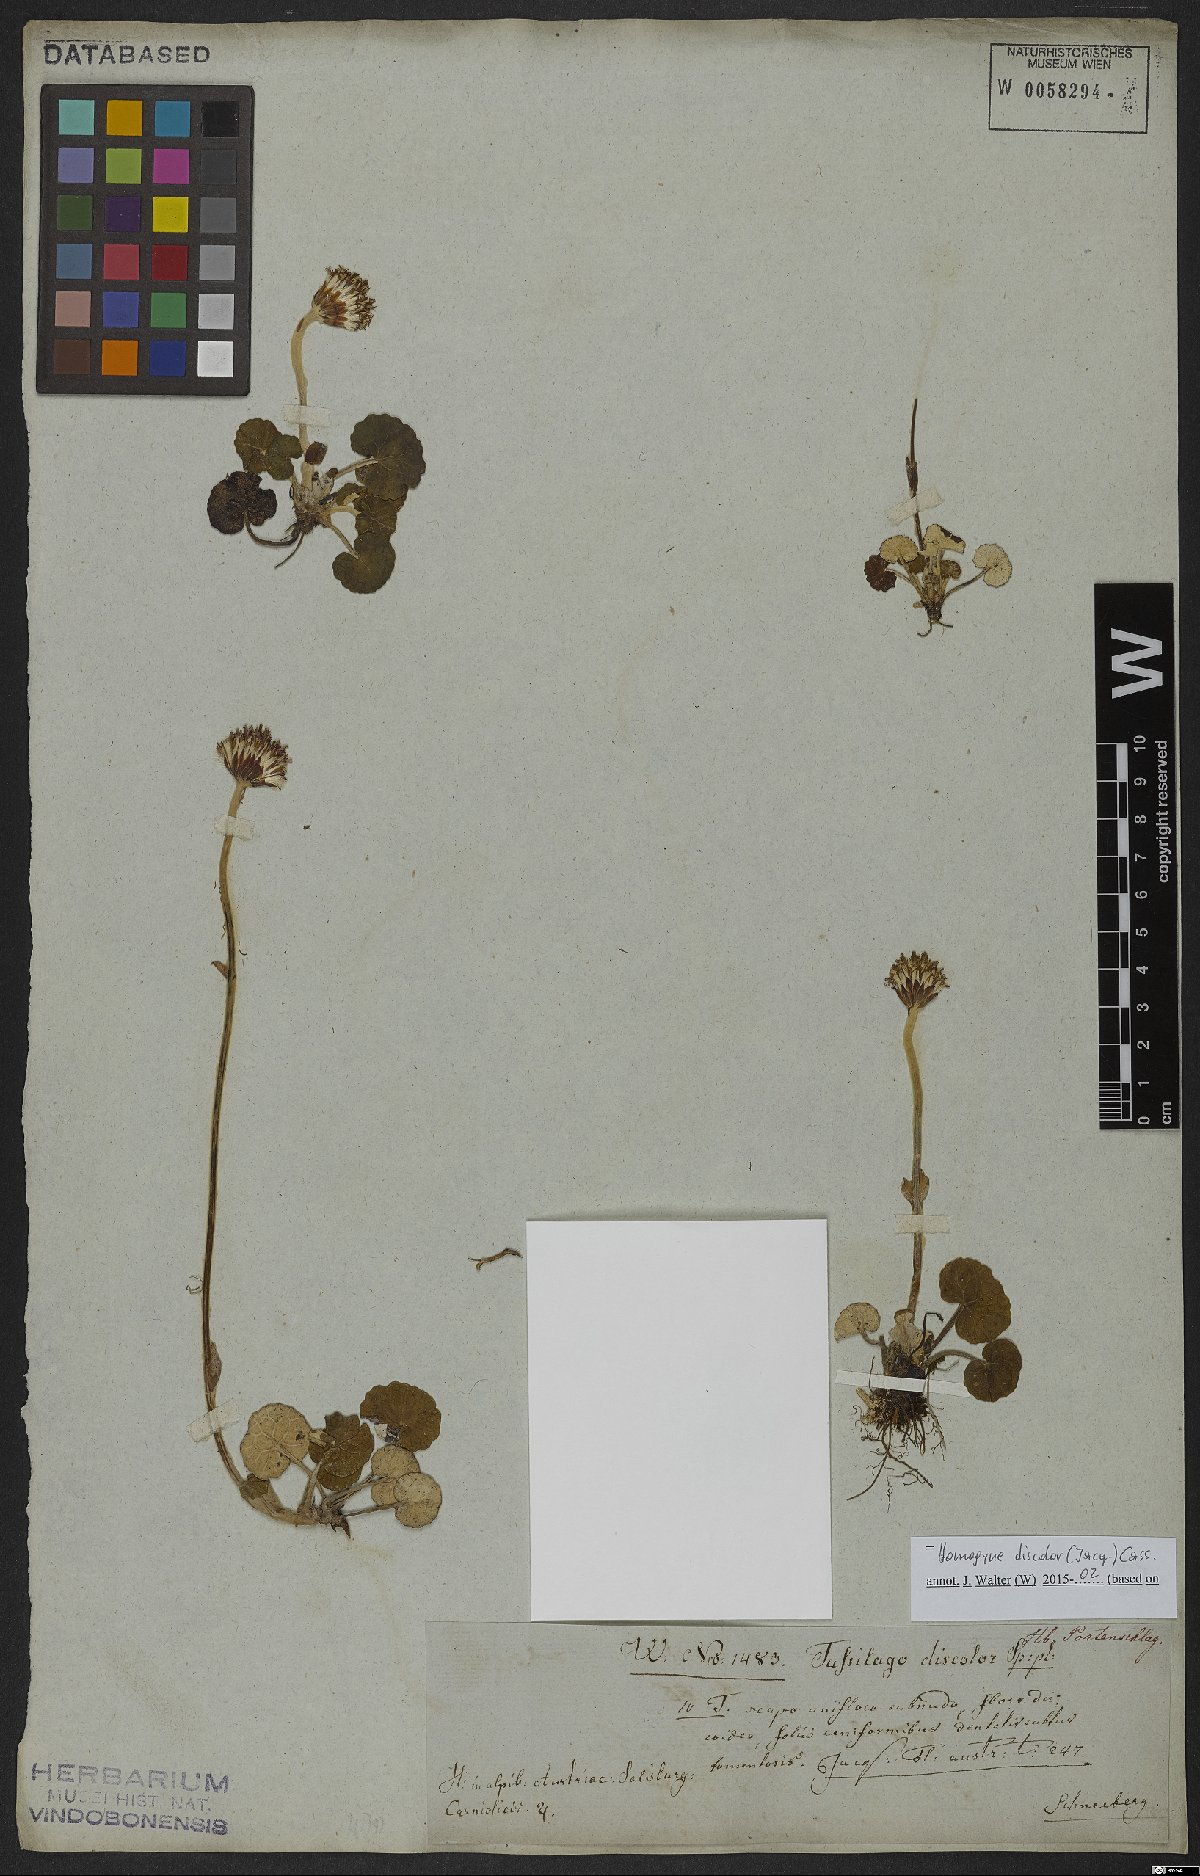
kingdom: Plantae
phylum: Tracheophyta
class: Magnoliopsida
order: Asterales
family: Asteraceae
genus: Homogyne
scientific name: Homogyne discolor
